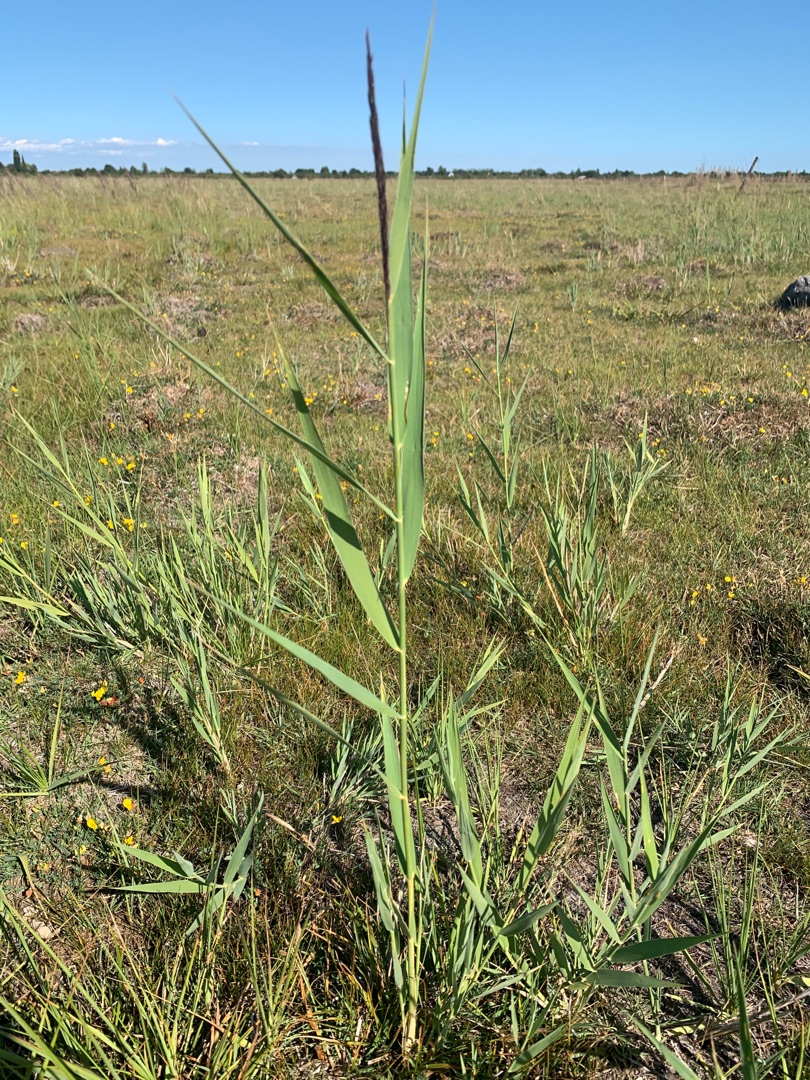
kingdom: Plantae
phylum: Tracheophyta
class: Liliopsida
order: Poales
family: Poaceae
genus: Phragmites
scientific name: Phragmites australis
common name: Tagrør
